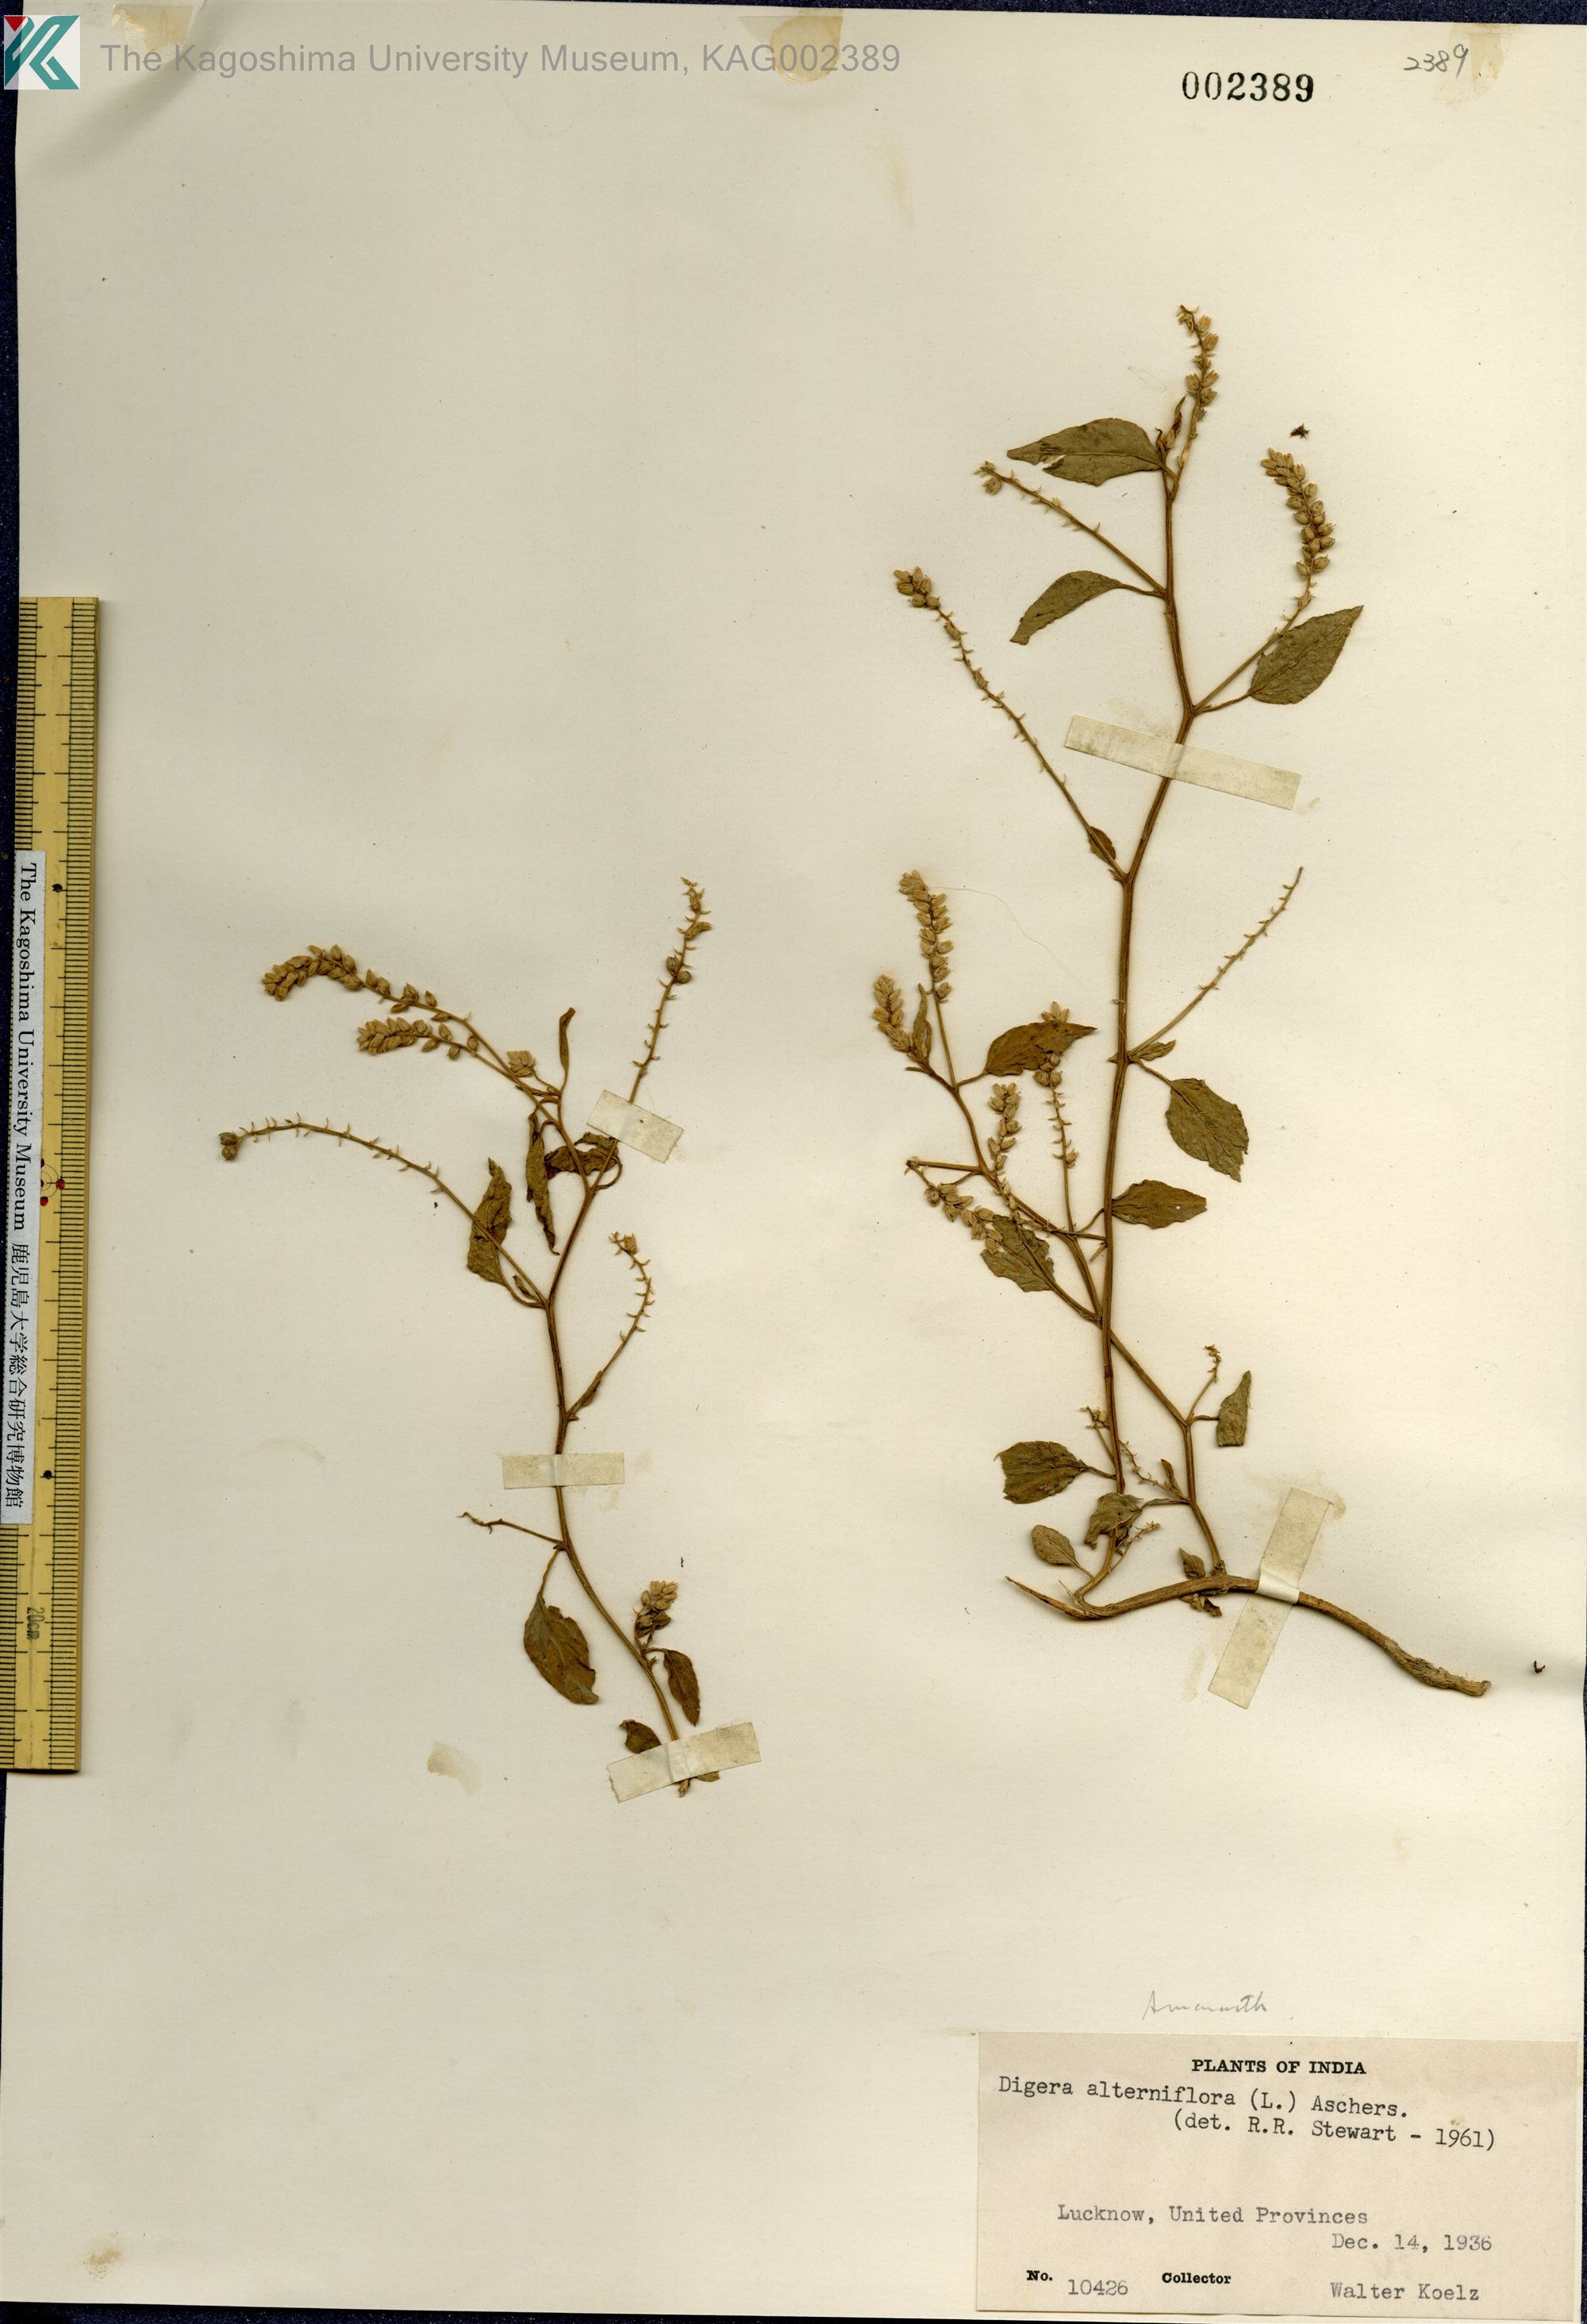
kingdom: Plantae
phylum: Tracheophyta
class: Magnoliopsida
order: Caryophyllales
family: Amaranthaceae
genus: Digera
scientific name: Digera muricata
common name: False amaranth
